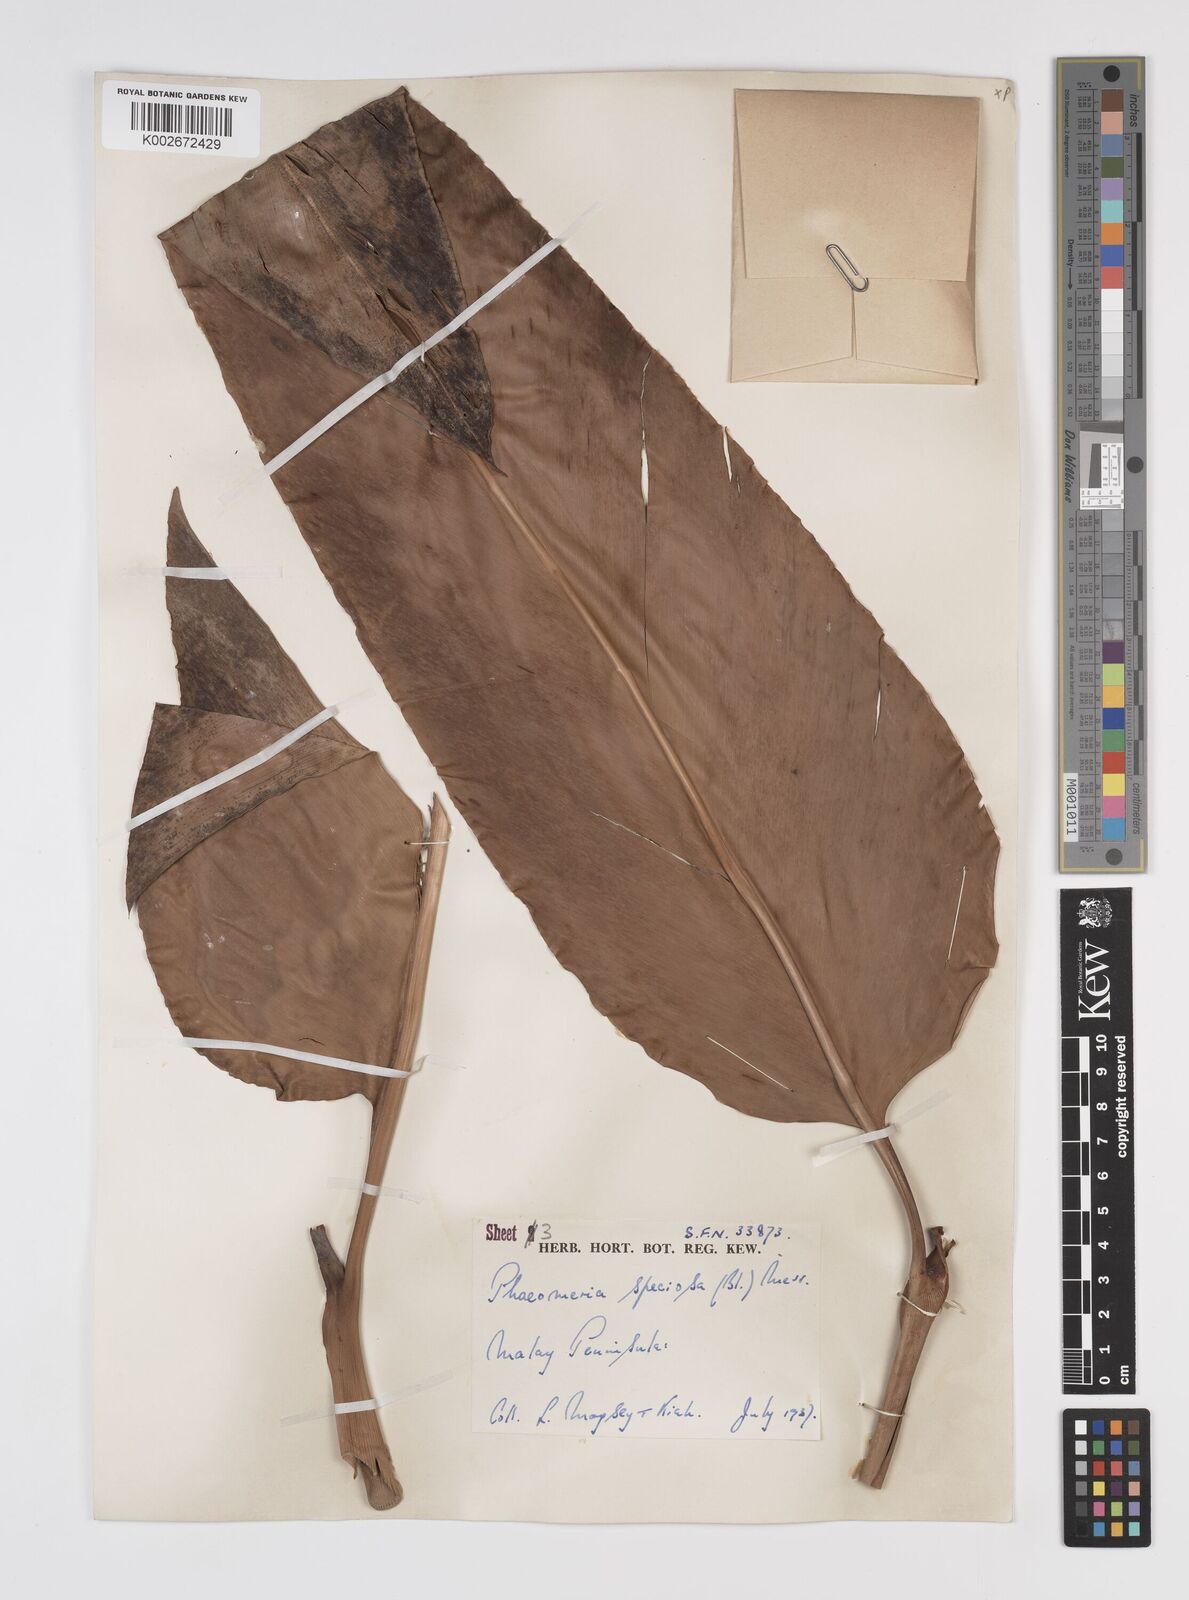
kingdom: Plantae
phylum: Tracheophyta
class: Liliopsida
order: Zingiberales
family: Zingiberaceae
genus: Etlingera
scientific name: Etlingera elatior
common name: Philippine waxflower
